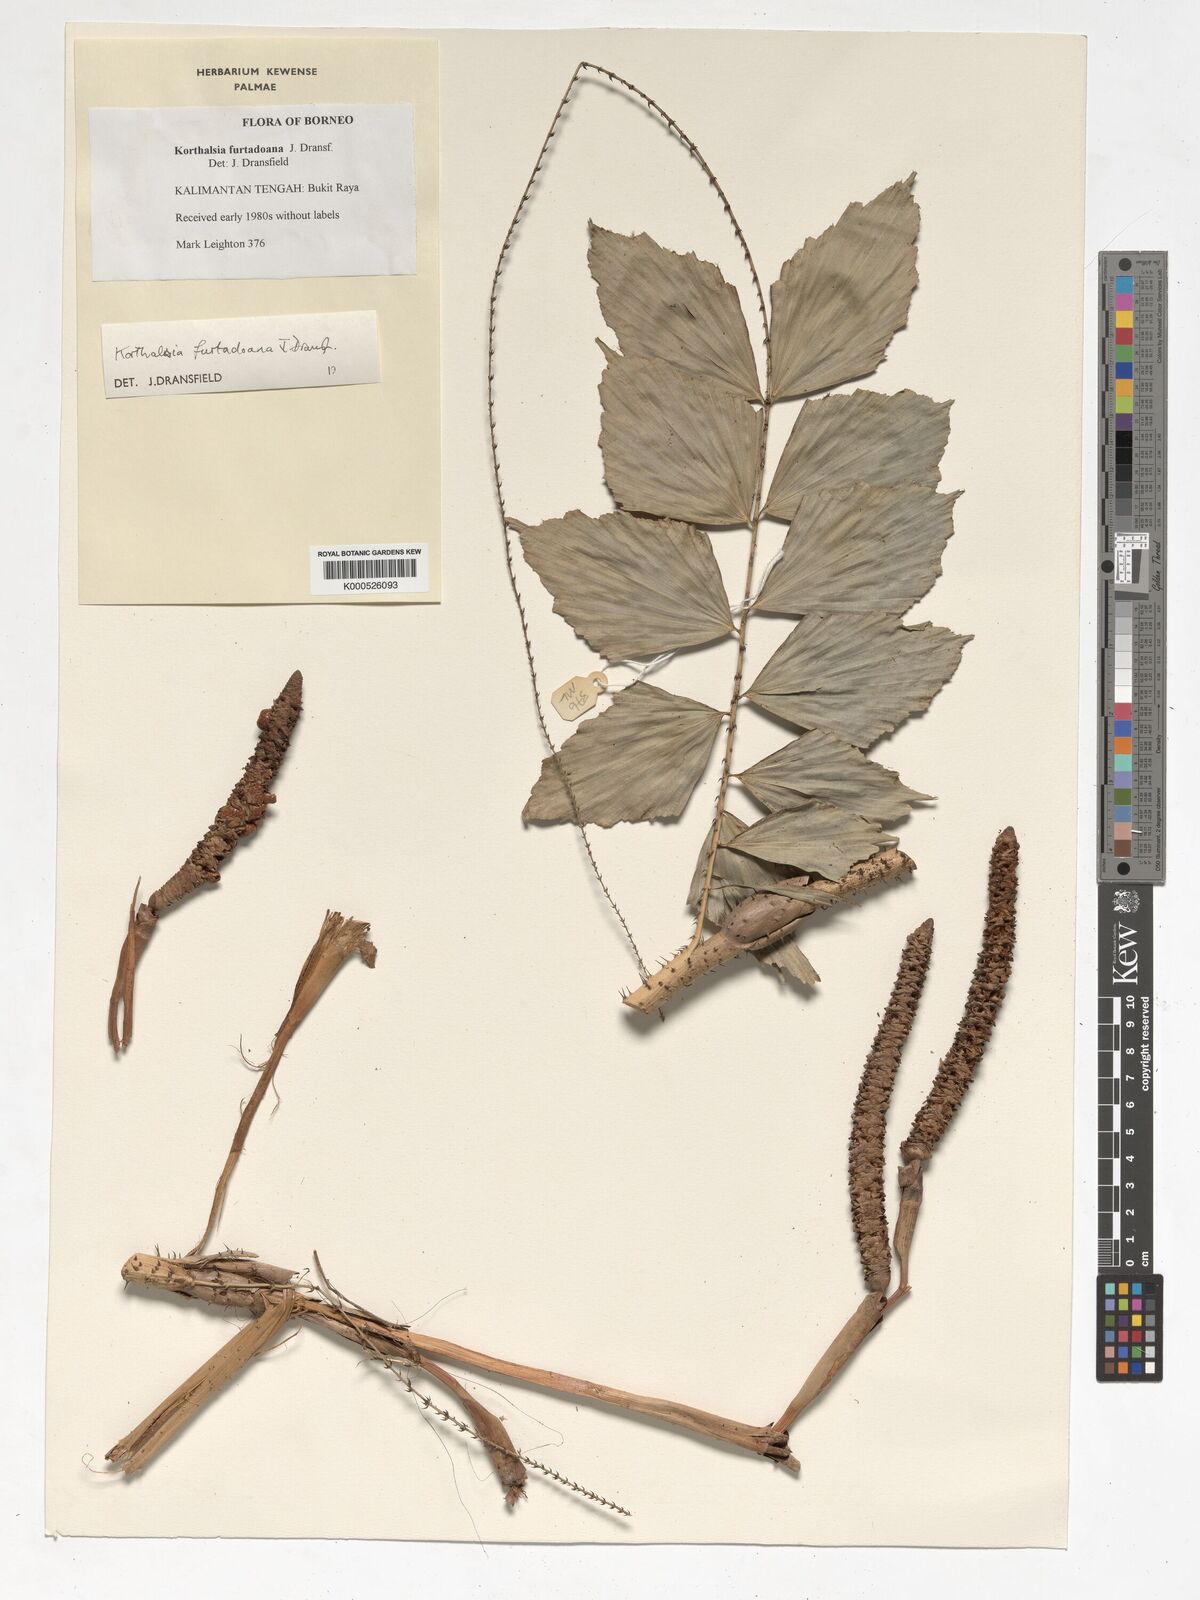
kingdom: Plantae
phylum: Tracheophyta
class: Liliopsida
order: Arecales
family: Arecaceae
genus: Korthalsia
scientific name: Korthalsia furtadoana
